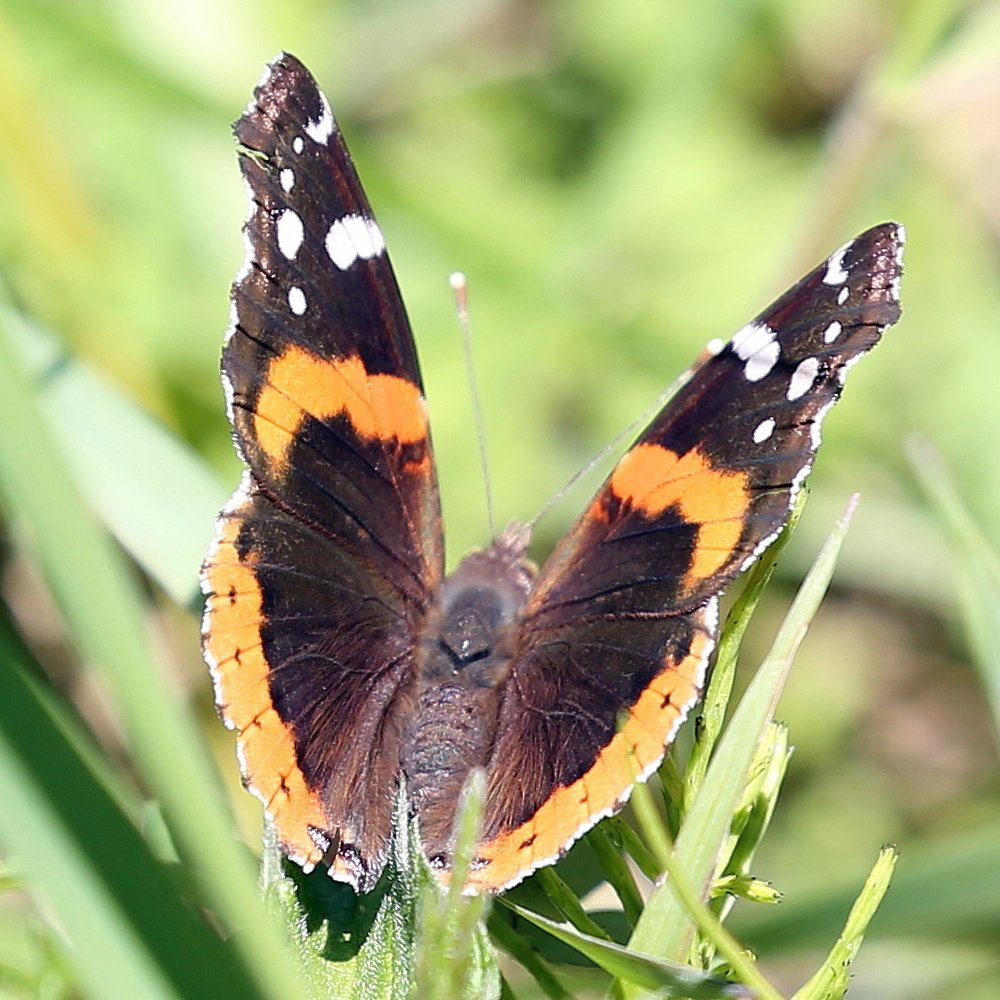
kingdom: Animalia
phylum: Arthropoda
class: Insecta
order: Lepidoptera
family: Nymphalidae
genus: Vanessa
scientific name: Vanessa atalanta
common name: Red Admiral
